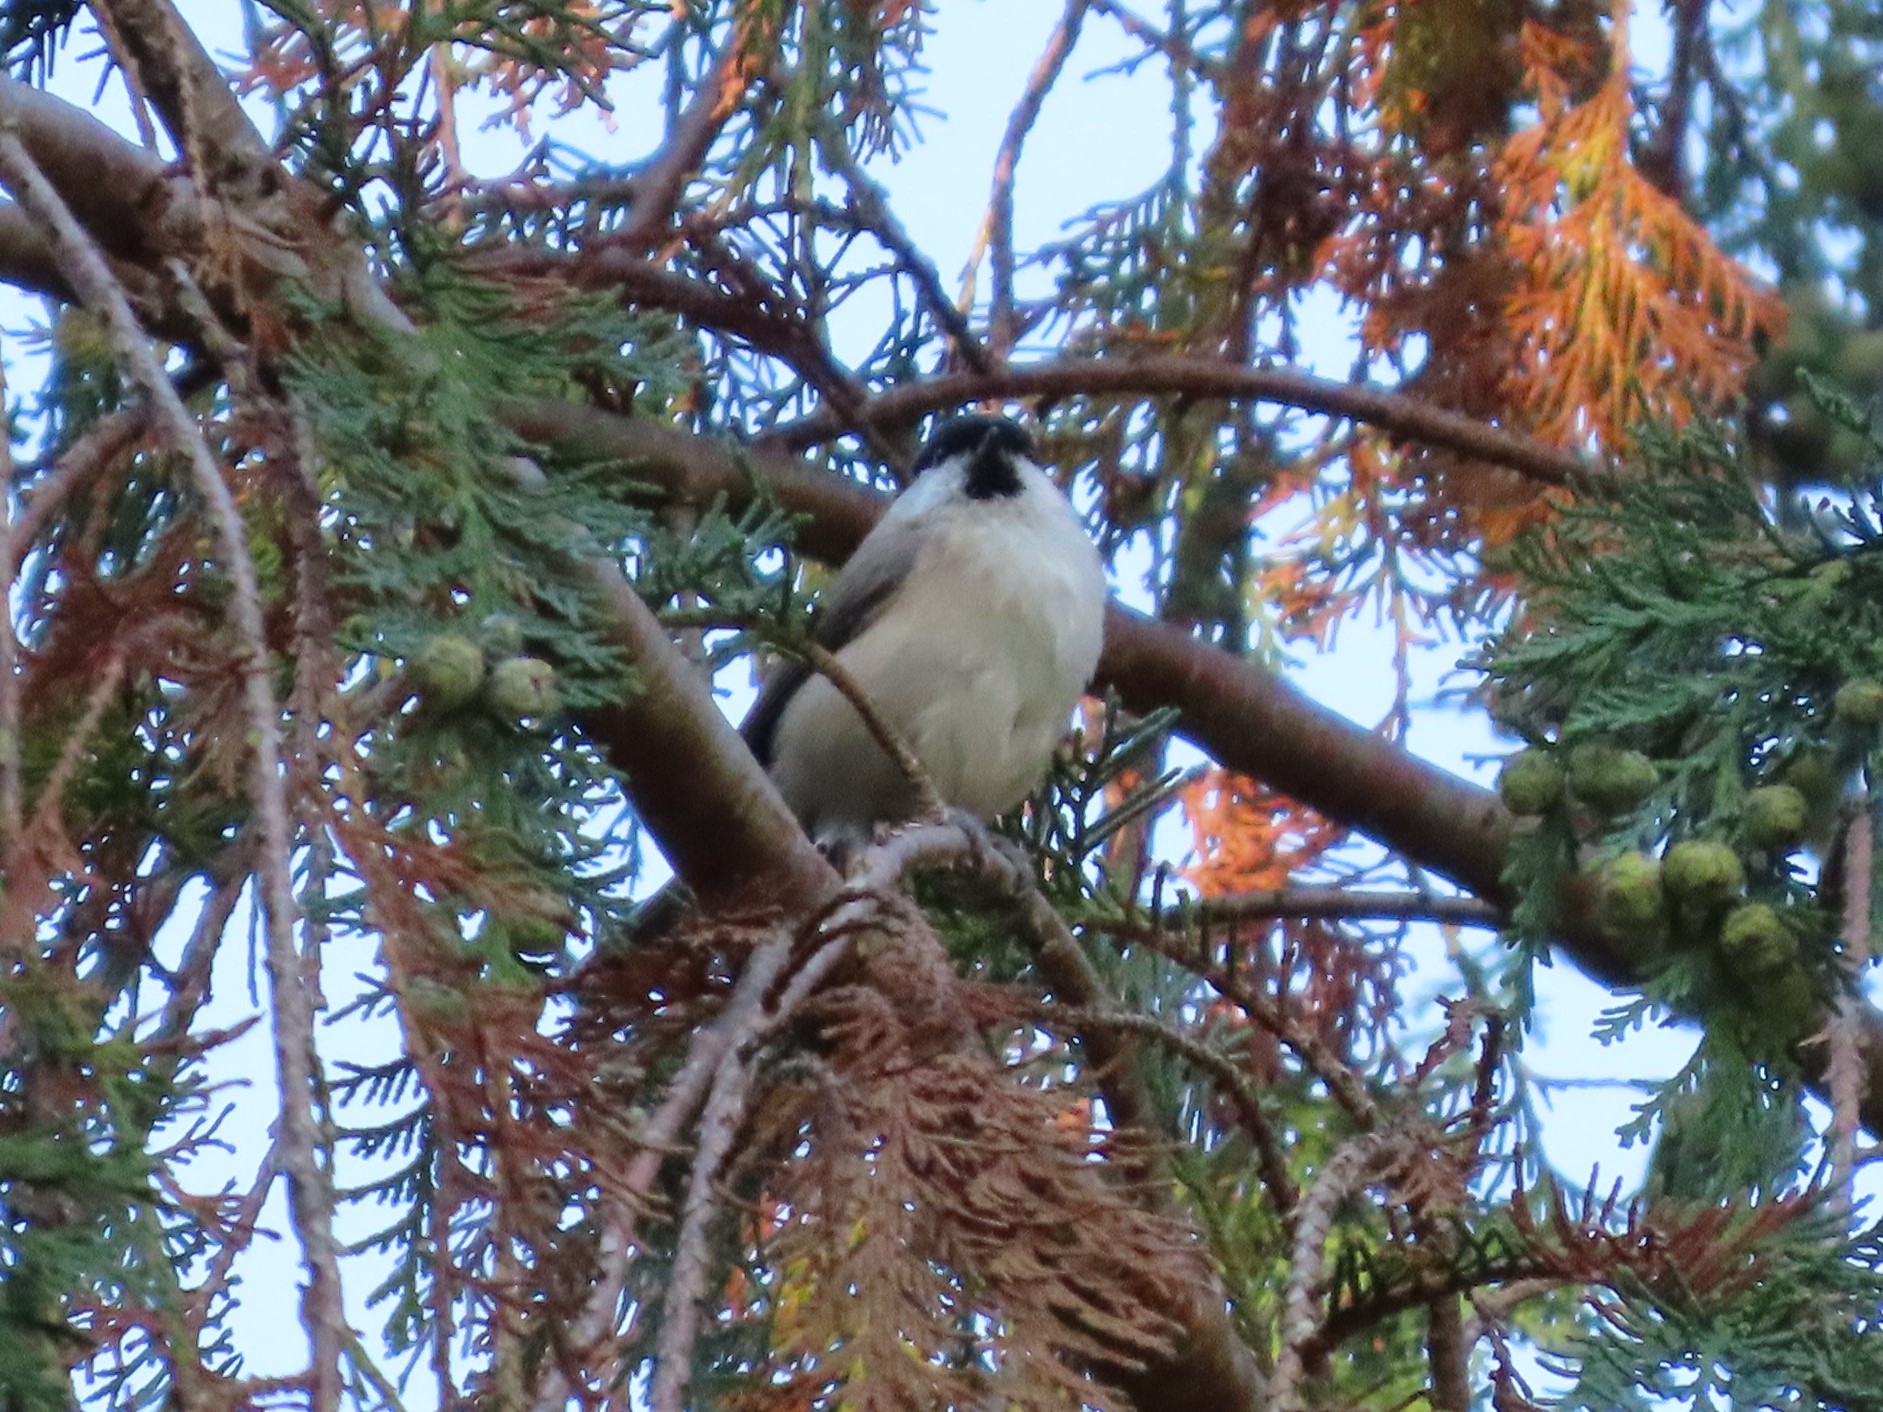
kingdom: Animalia
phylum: Chordata
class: Aves
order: Passeriformes
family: Paridae
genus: Poecile
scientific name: Poecile palustris
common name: Sumpmejse
